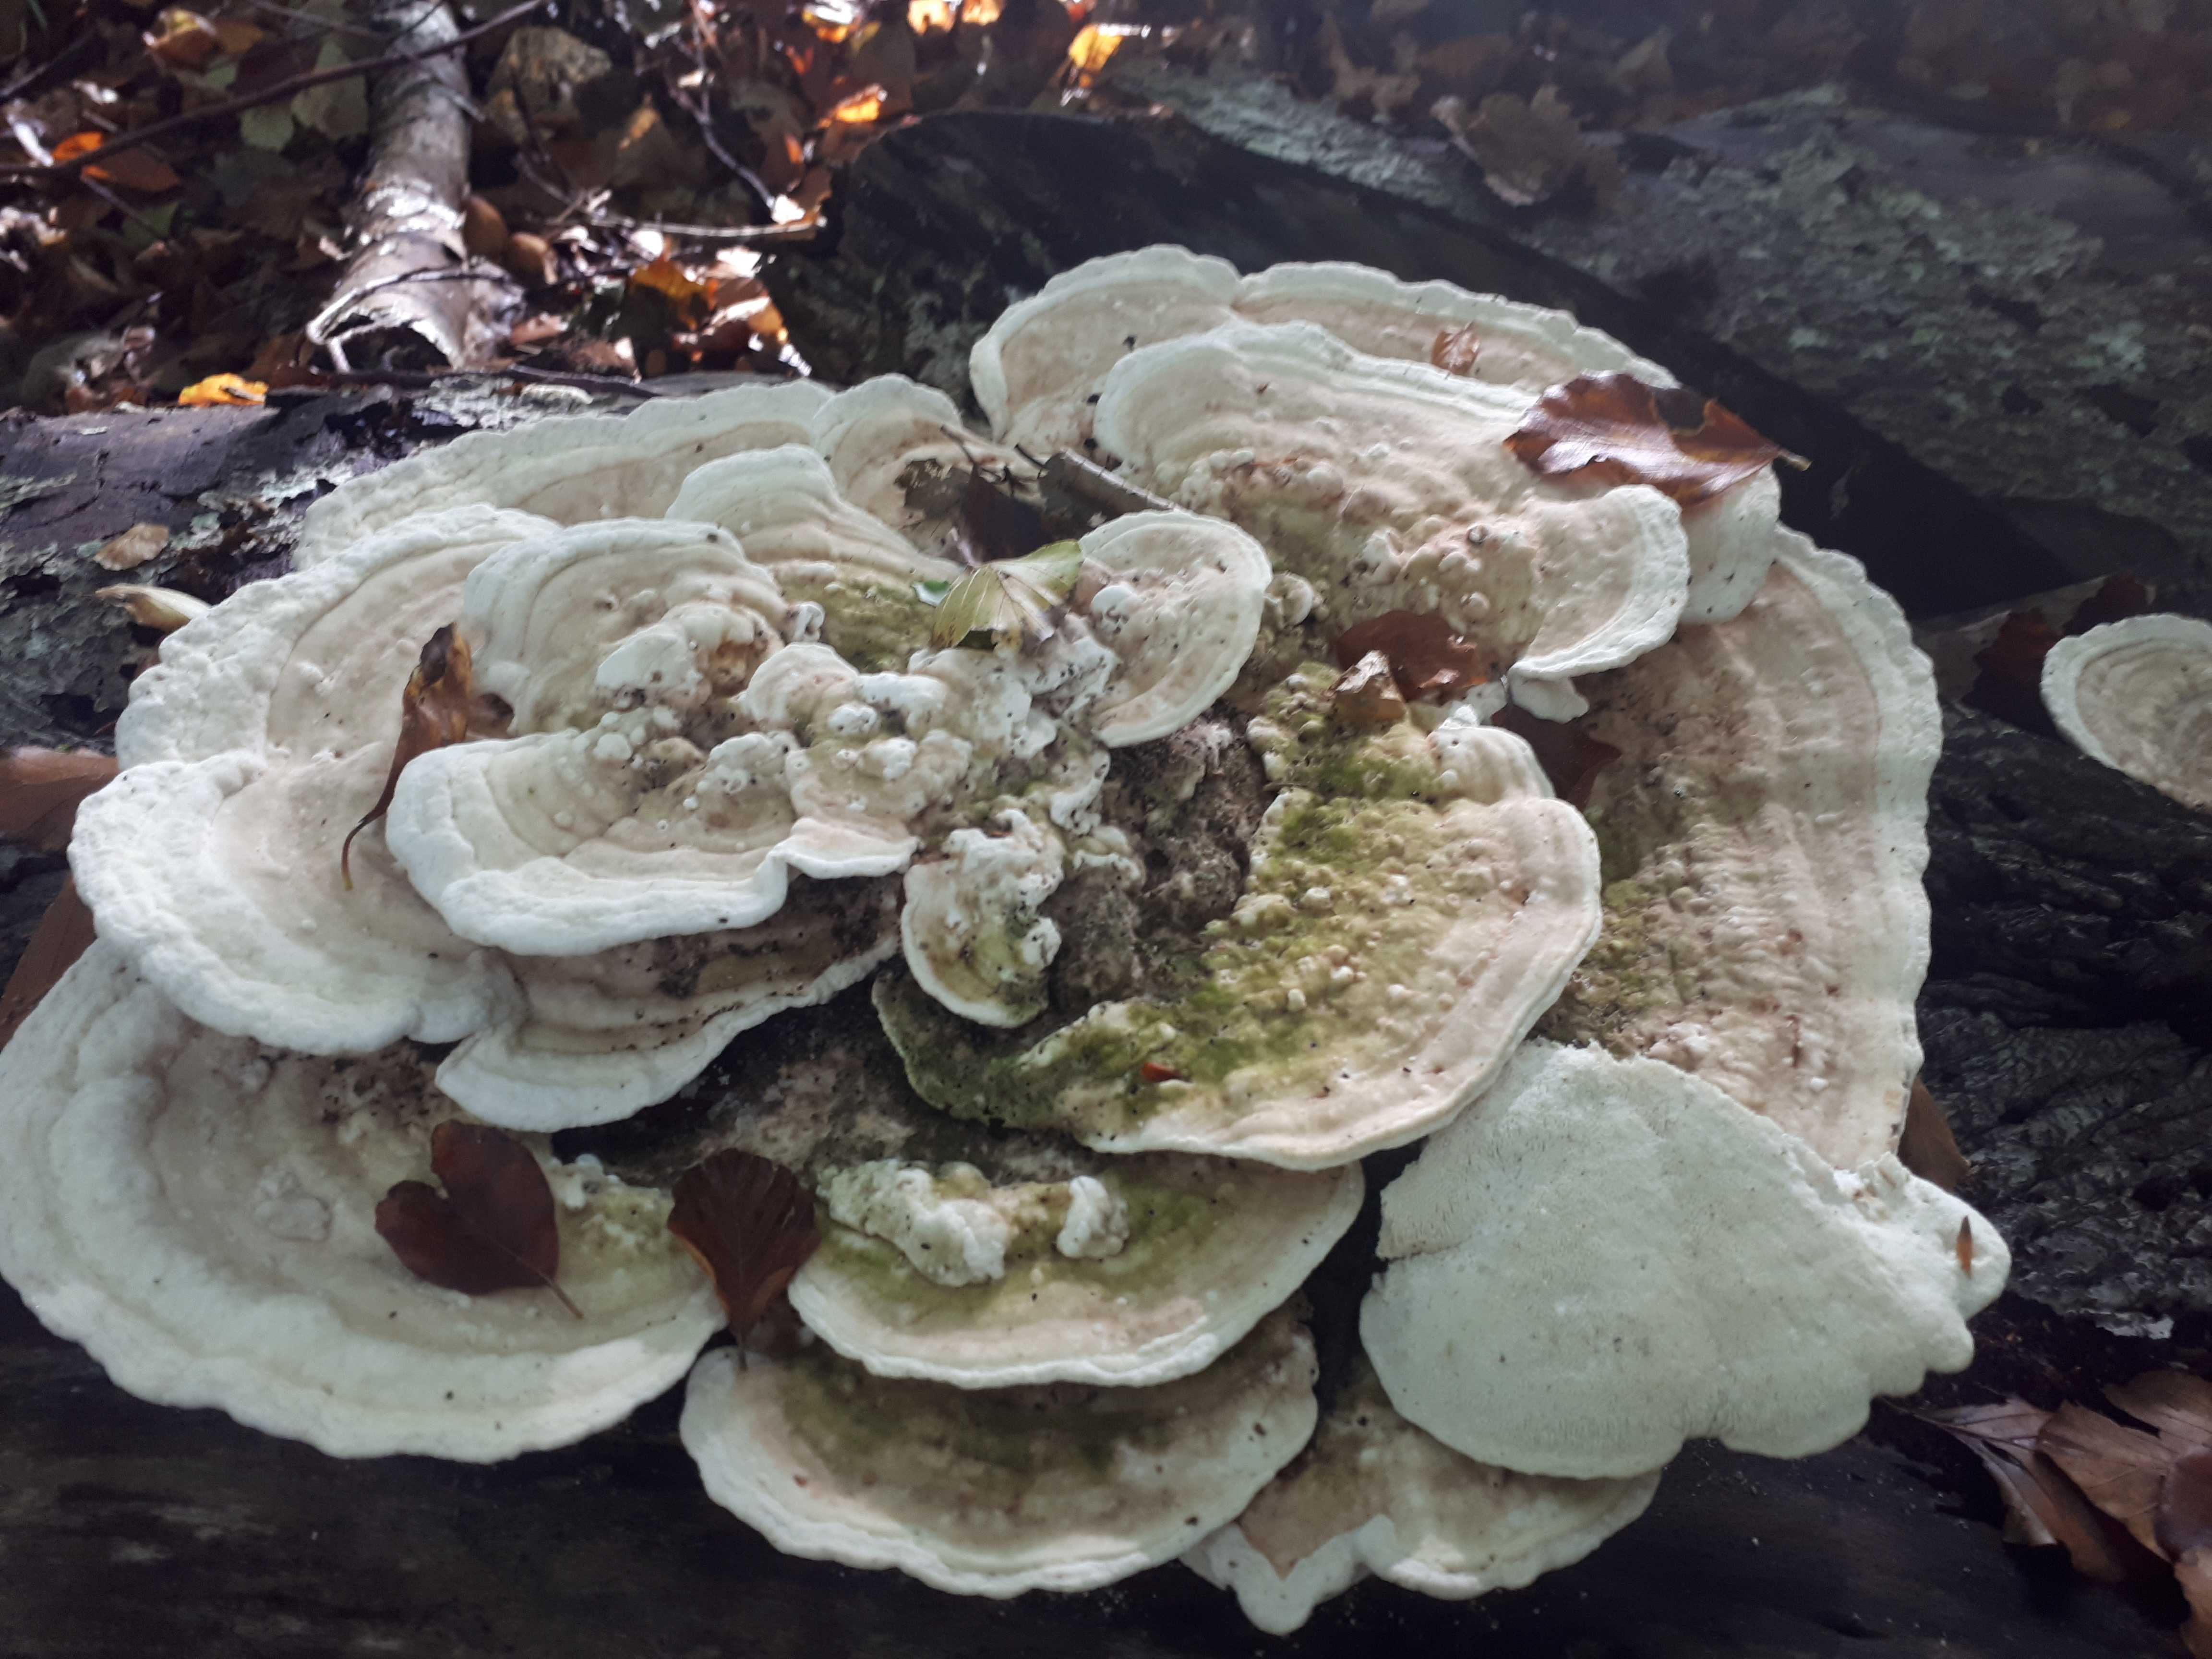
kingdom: Fungi
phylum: Basidiomycota
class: Agaricomycetes
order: Polyporales
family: Polyporaceae
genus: Trametes
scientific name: Trametes gibbosa
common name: puklet læderporesvamp
